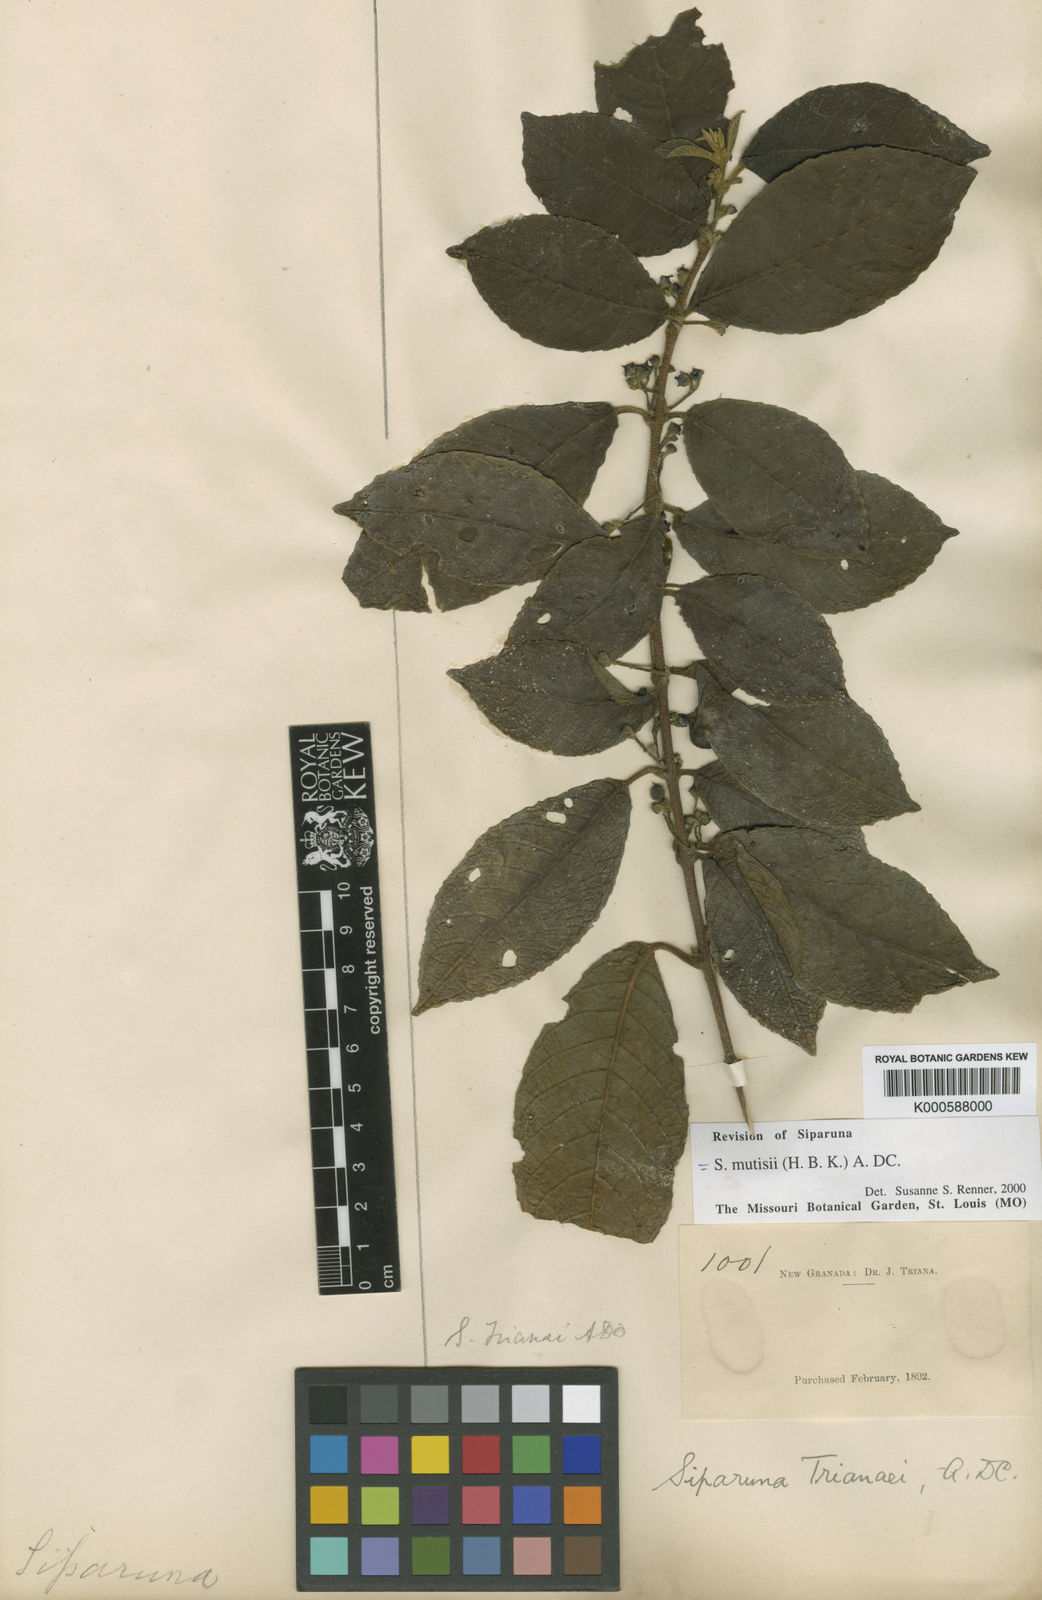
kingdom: Plantae
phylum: Tracheophyta
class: Magnoliopsida
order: Laurales
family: Siparunaceae
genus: Siparuna
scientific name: Siparuna
